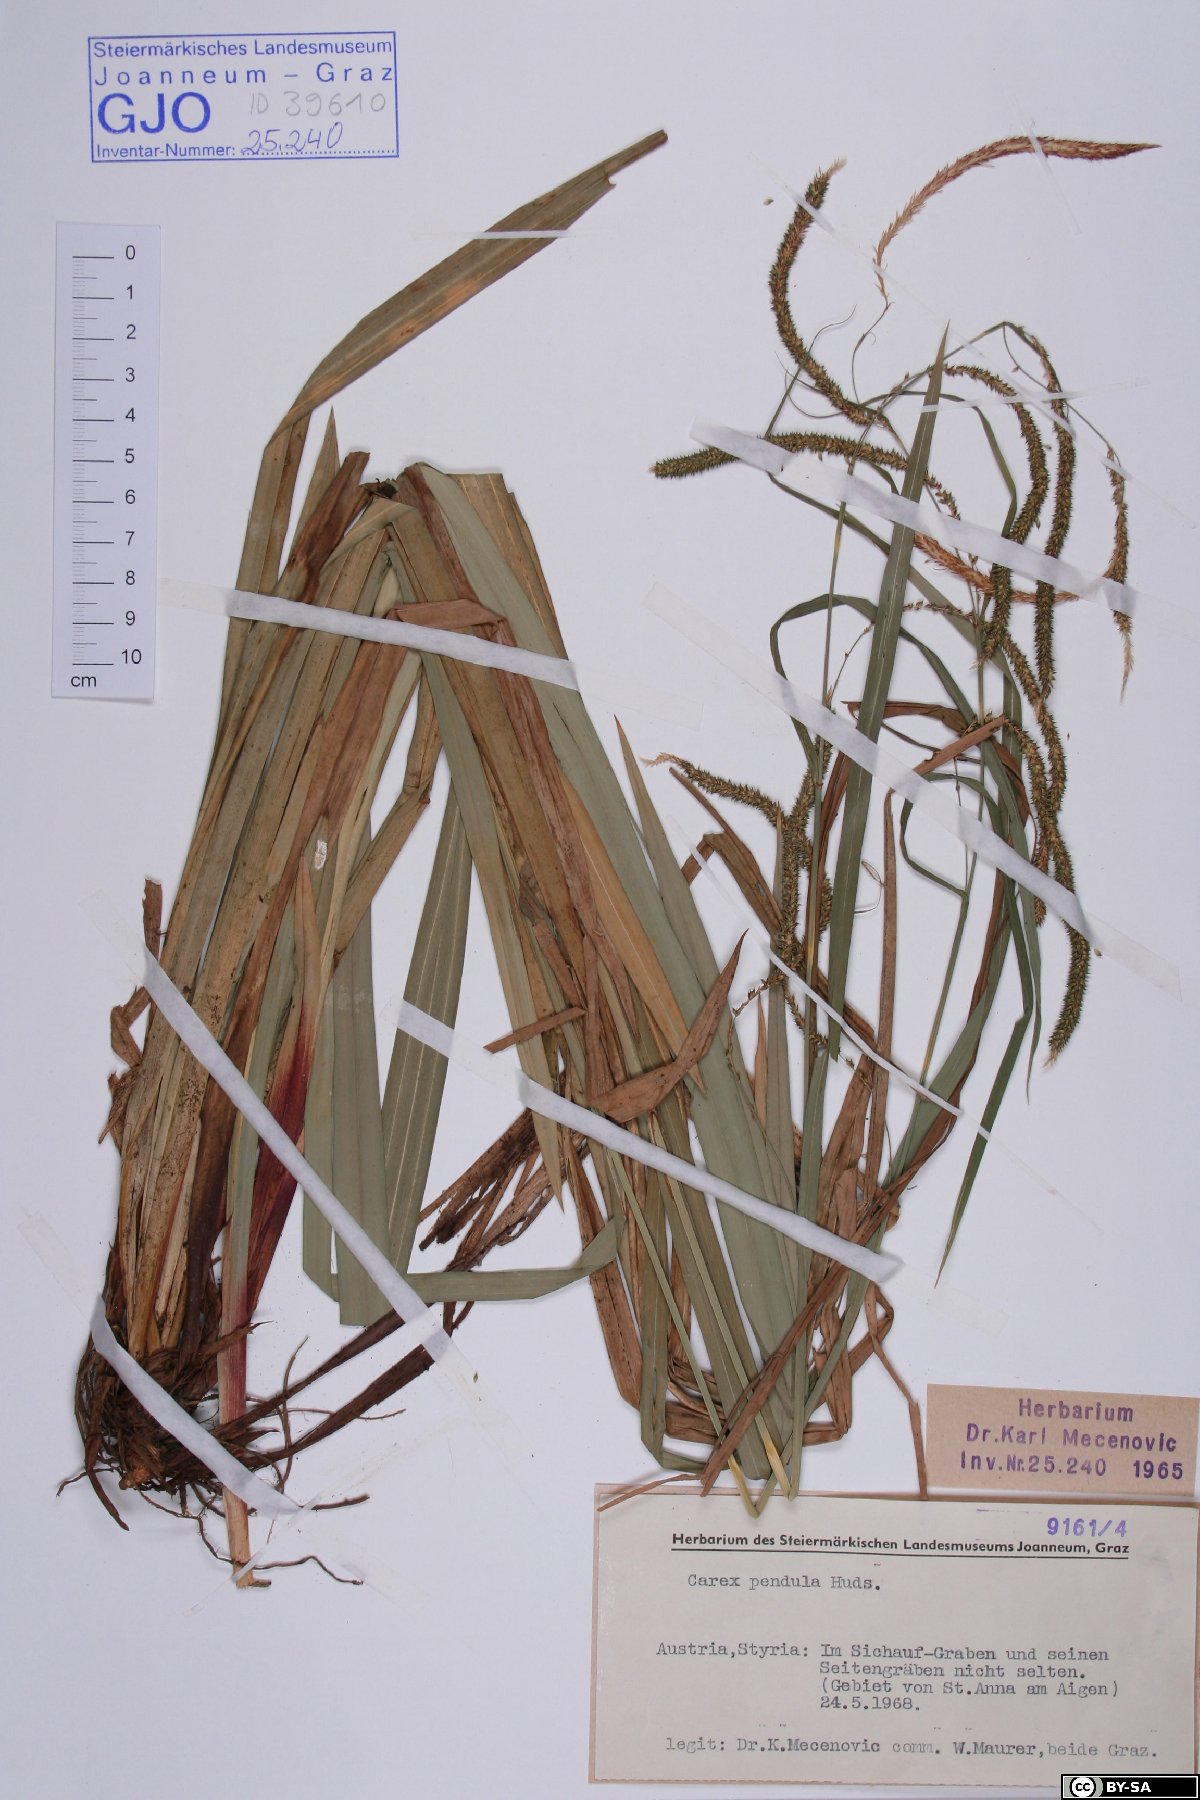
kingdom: Plantae
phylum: Tracheophyta
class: Liliopsida
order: Poales
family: Cyperaceae
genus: Carex
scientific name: Carex pendula
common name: Pendulous sedge
